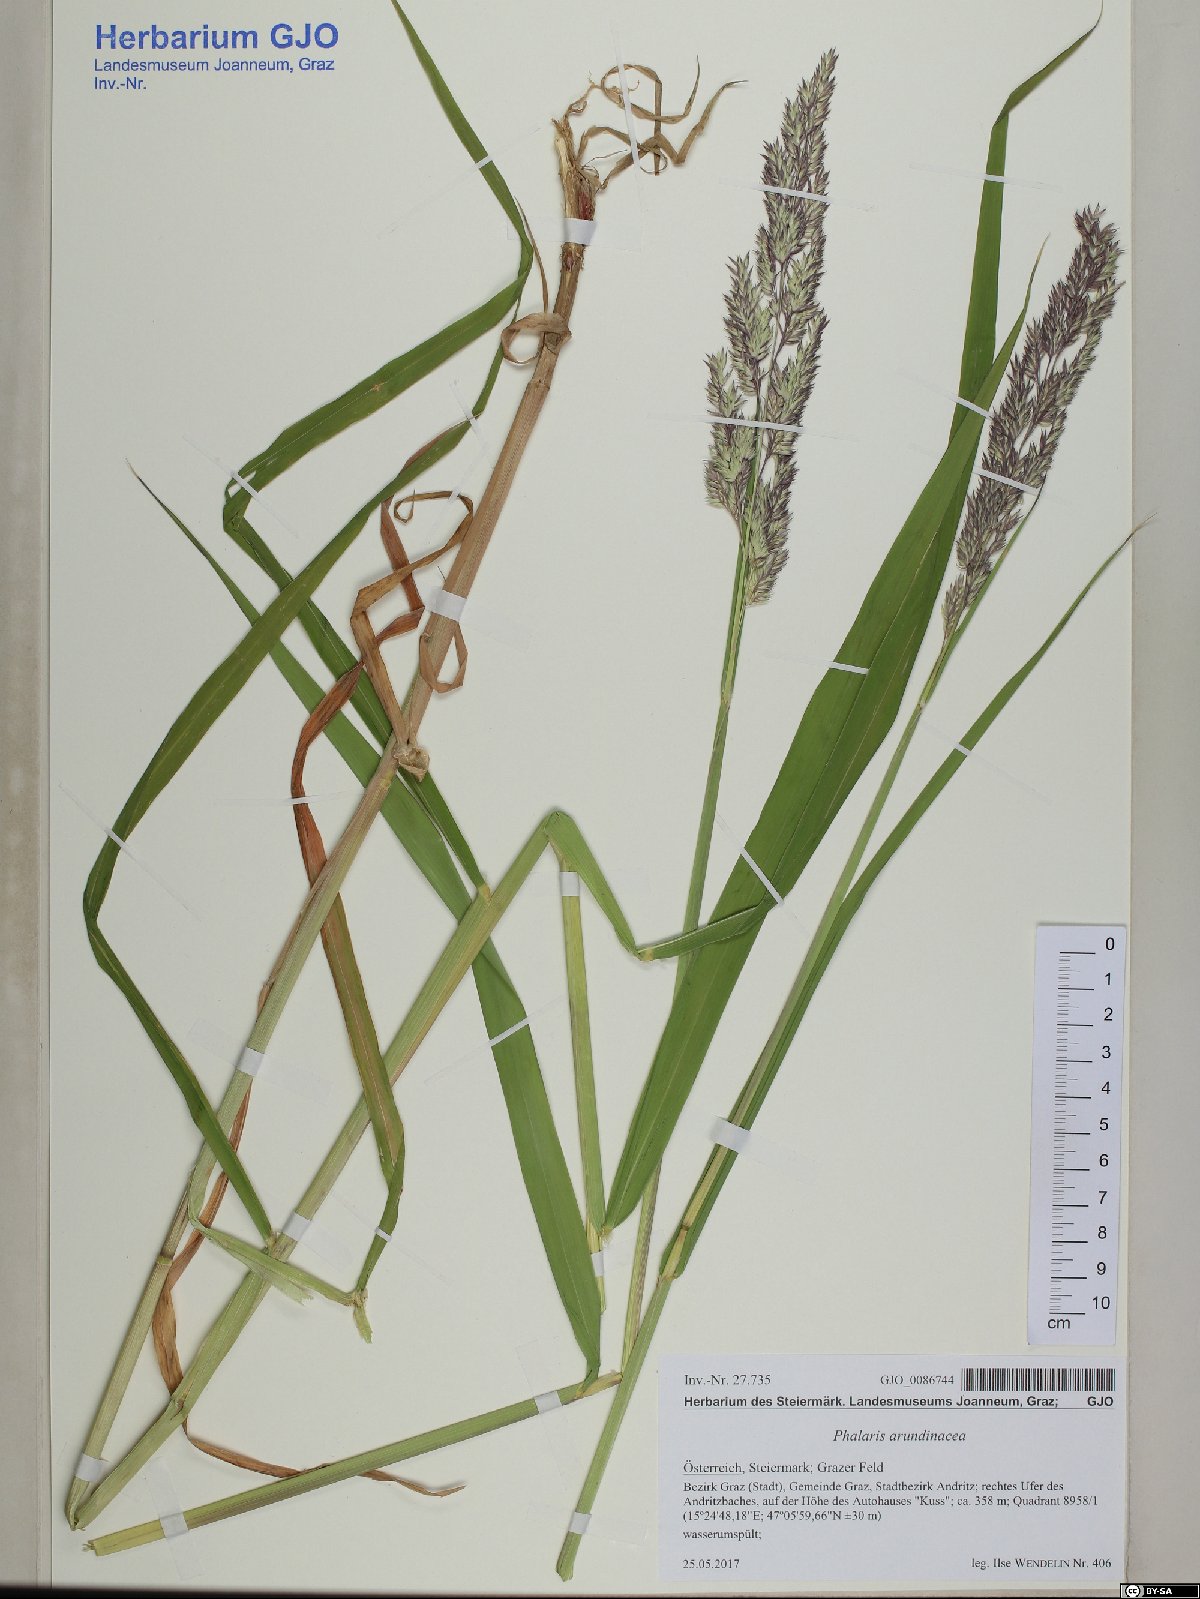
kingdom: Plantae
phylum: Tracheophyta
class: Liliopsida
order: Poales
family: Poaceae
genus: Phalaris
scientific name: Phalaris arundinacea
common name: Reed canary-grass
